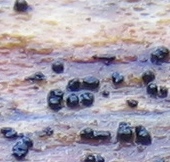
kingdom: Fungi
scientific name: Fungi
